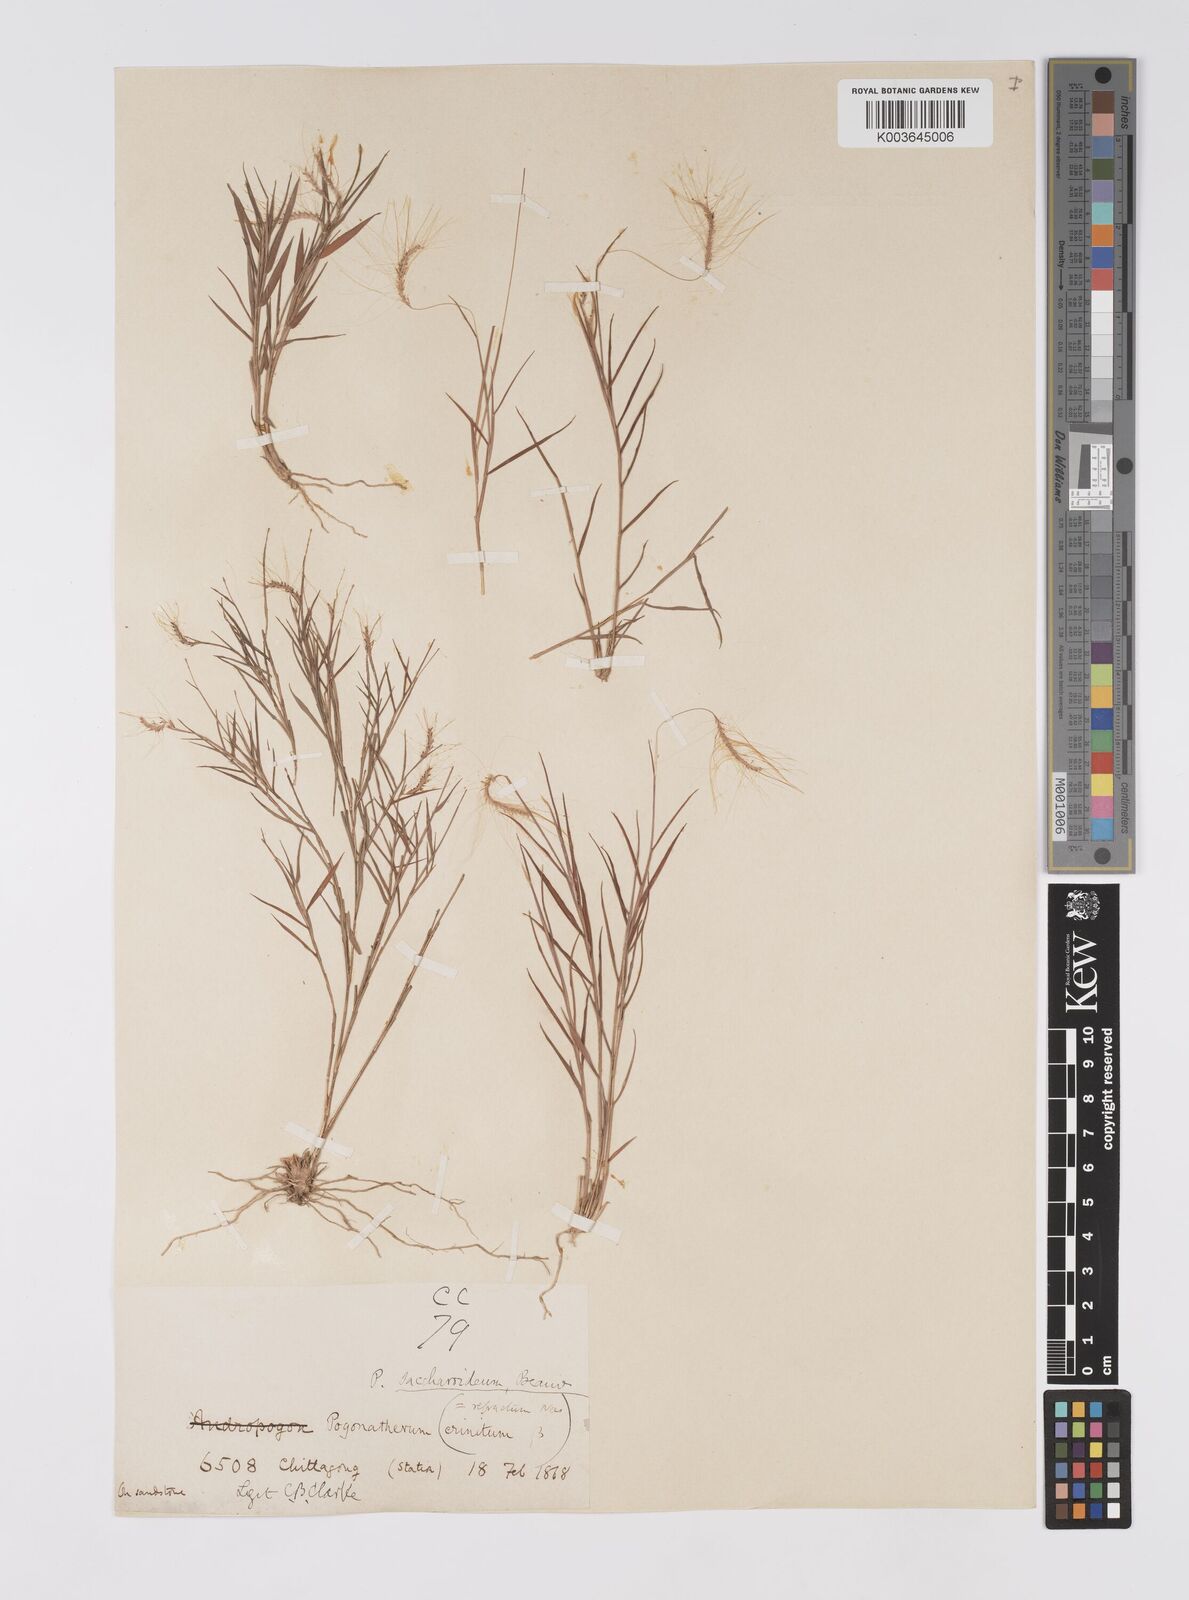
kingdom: Plantae
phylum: Tracheophyta
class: Liliopsida
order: Poales
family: Poaceae
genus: Pogonatherum
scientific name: Pogonatherum crinitum
